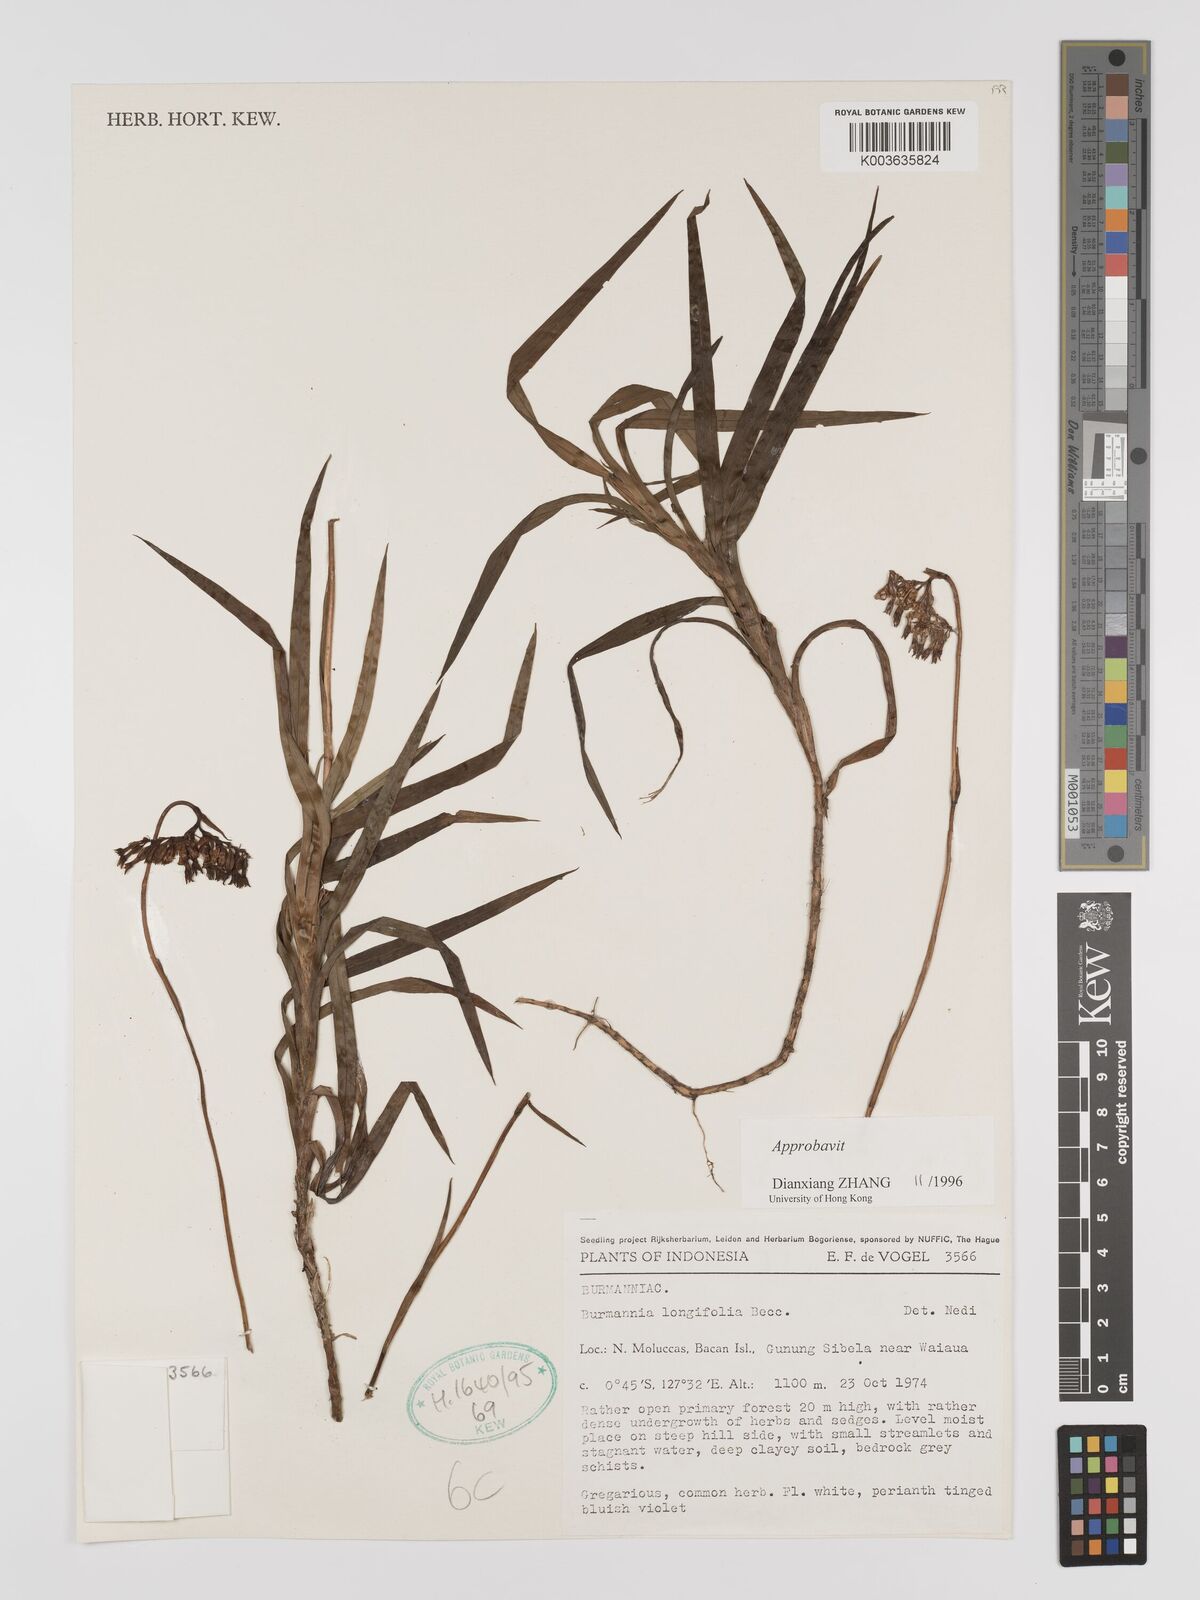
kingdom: Plantae
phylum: Tracheophyta
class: Liliopsida
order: Dioscoreales
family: Burmanniaceae
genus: Burmannia
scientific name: Burmannia longifolia
